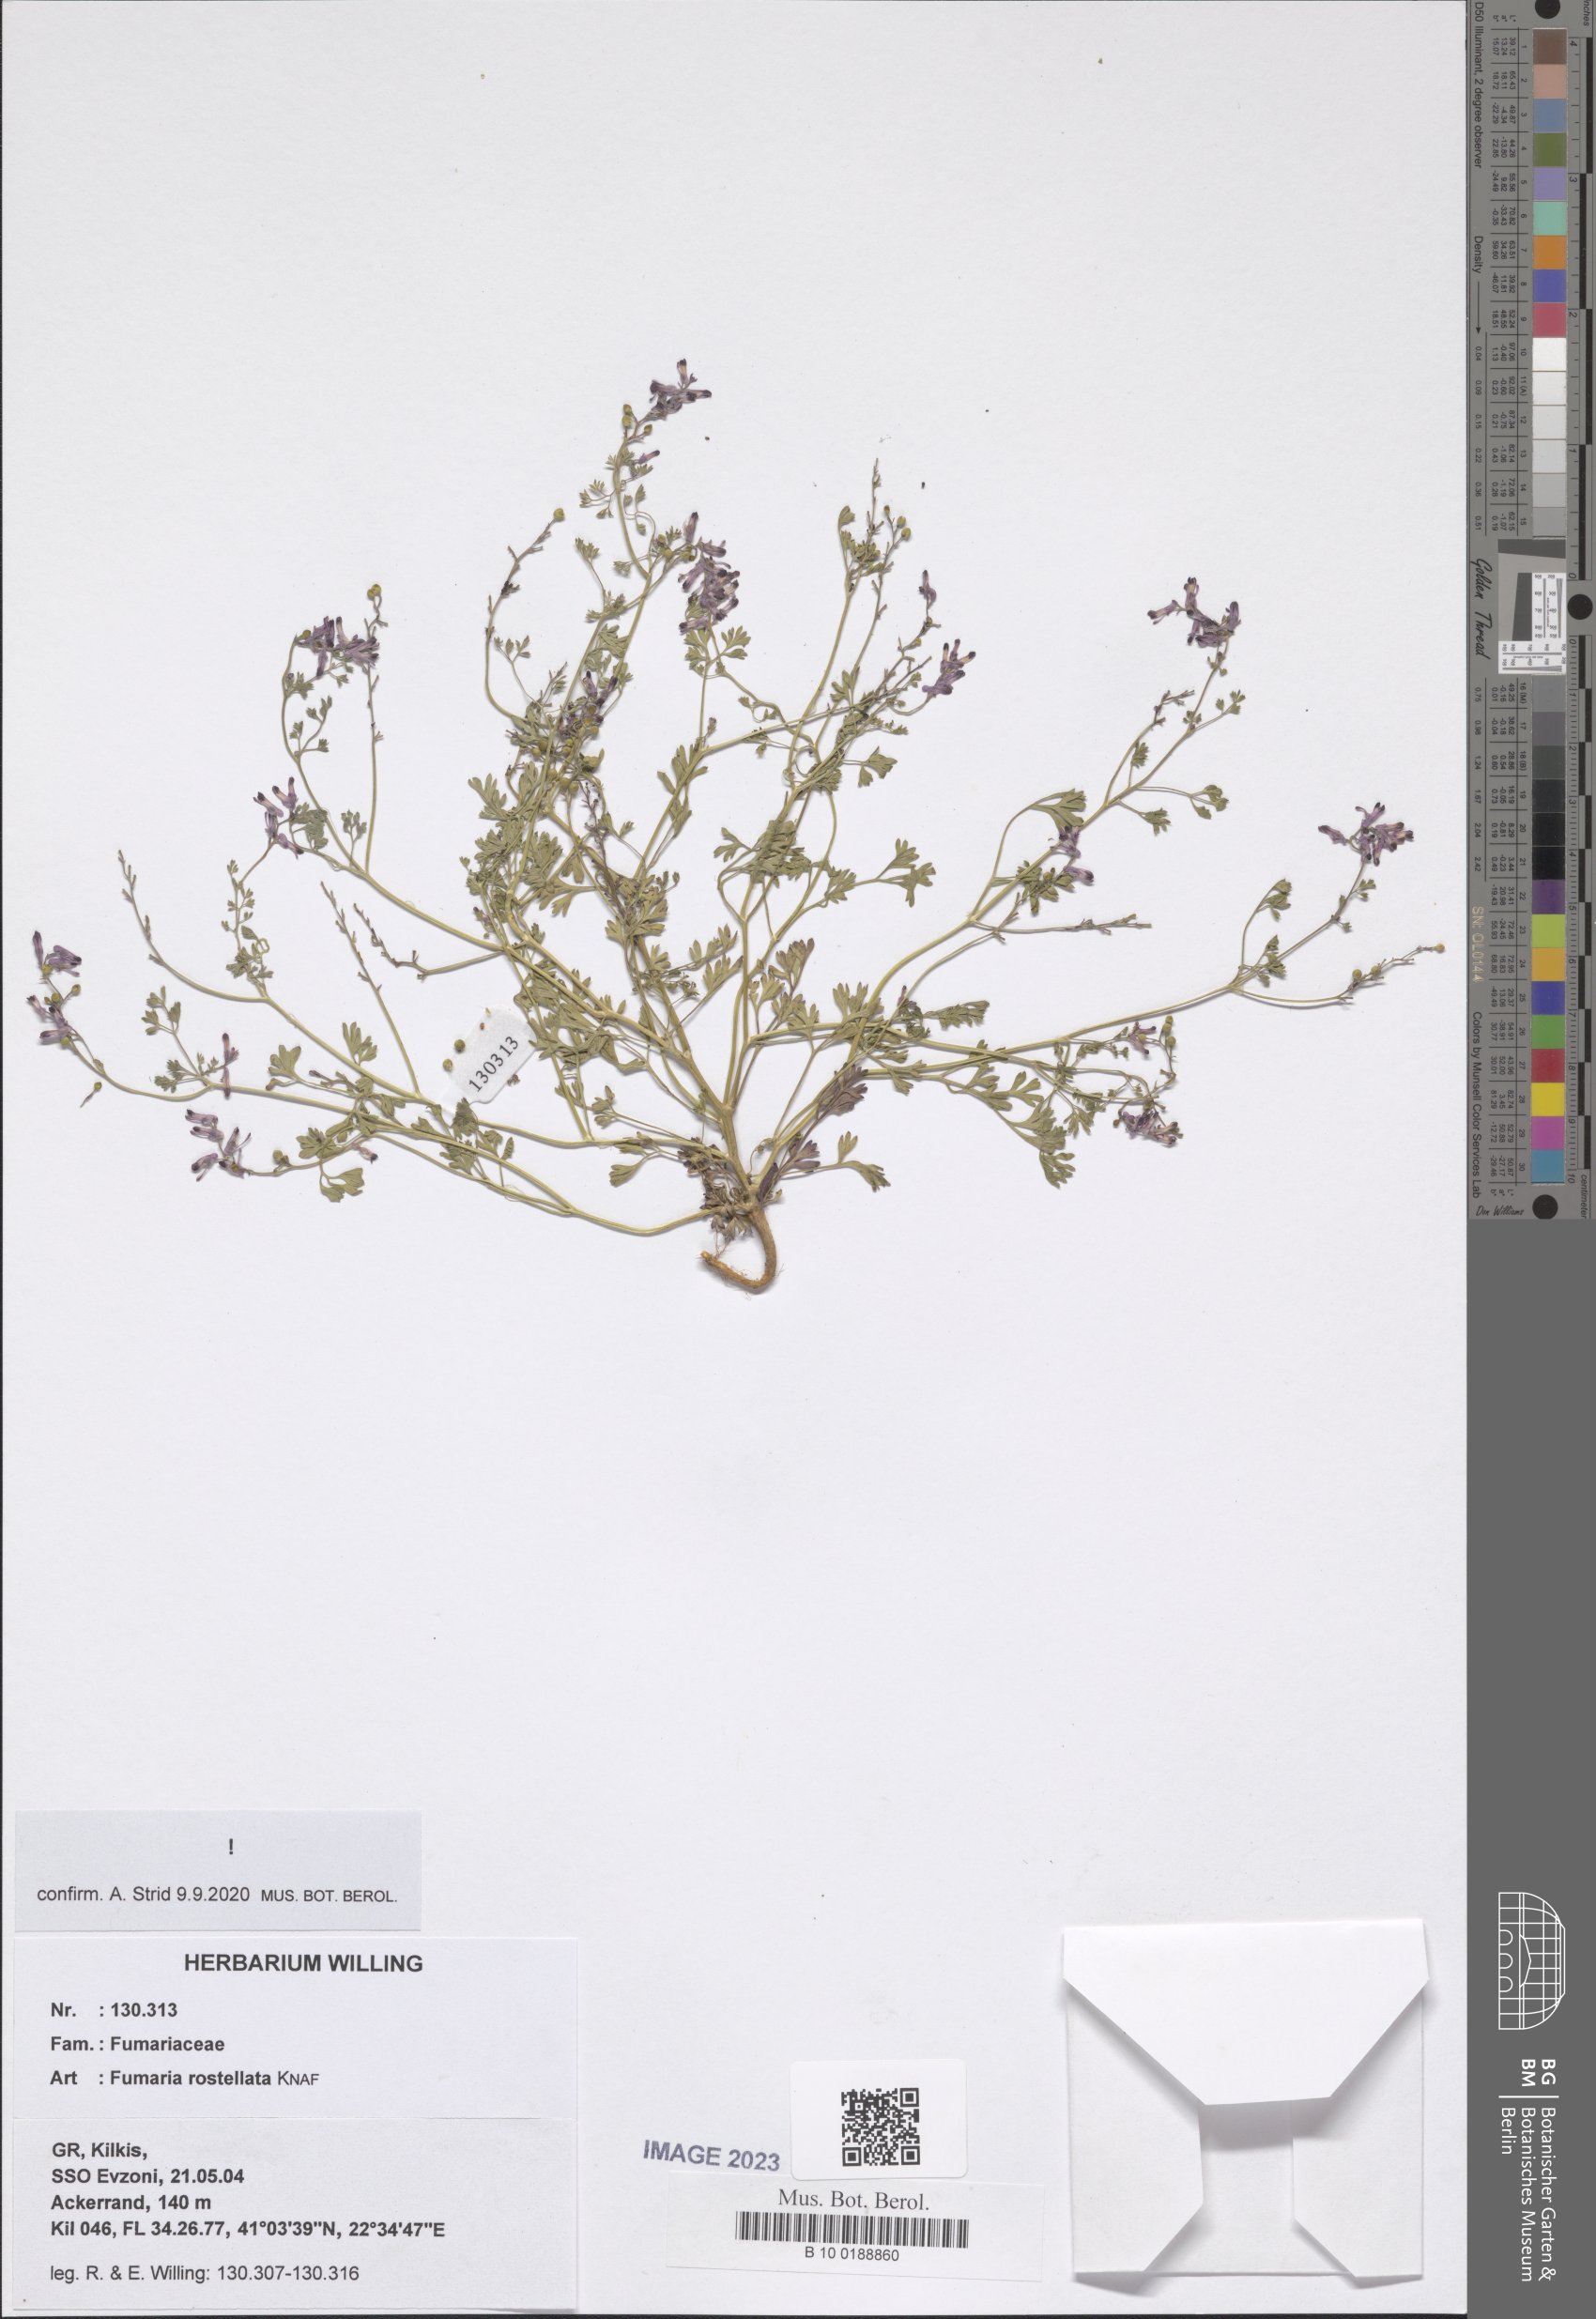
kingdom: Plantae
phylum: Tracheophyta
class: Magnoliopsida
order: Ranunculales
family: Papaveraceae
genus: Fumaria
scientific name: Fumaria rostellata
